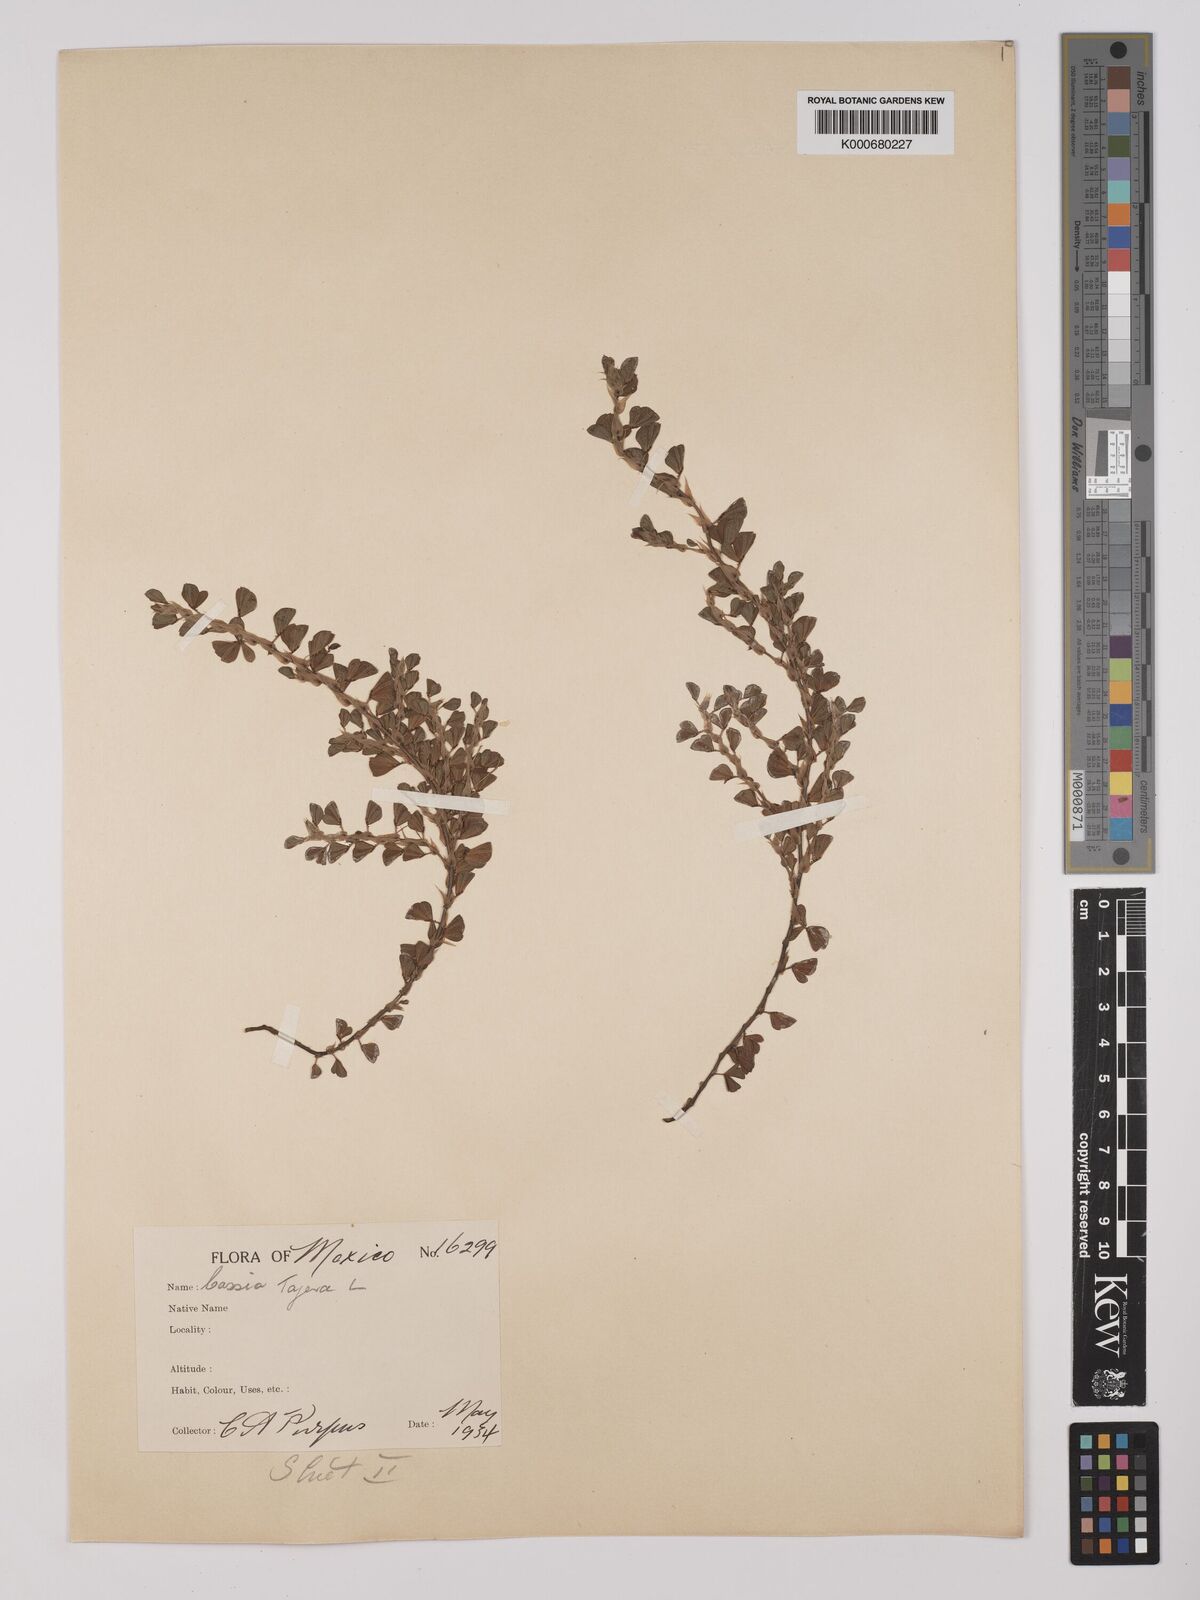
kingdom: Plantae
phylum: Tracheophyta
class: Magnoliopsida
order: Fabales
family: Fabaceae
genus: Chamaecrista
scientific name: Chamaecrista kunthiana
